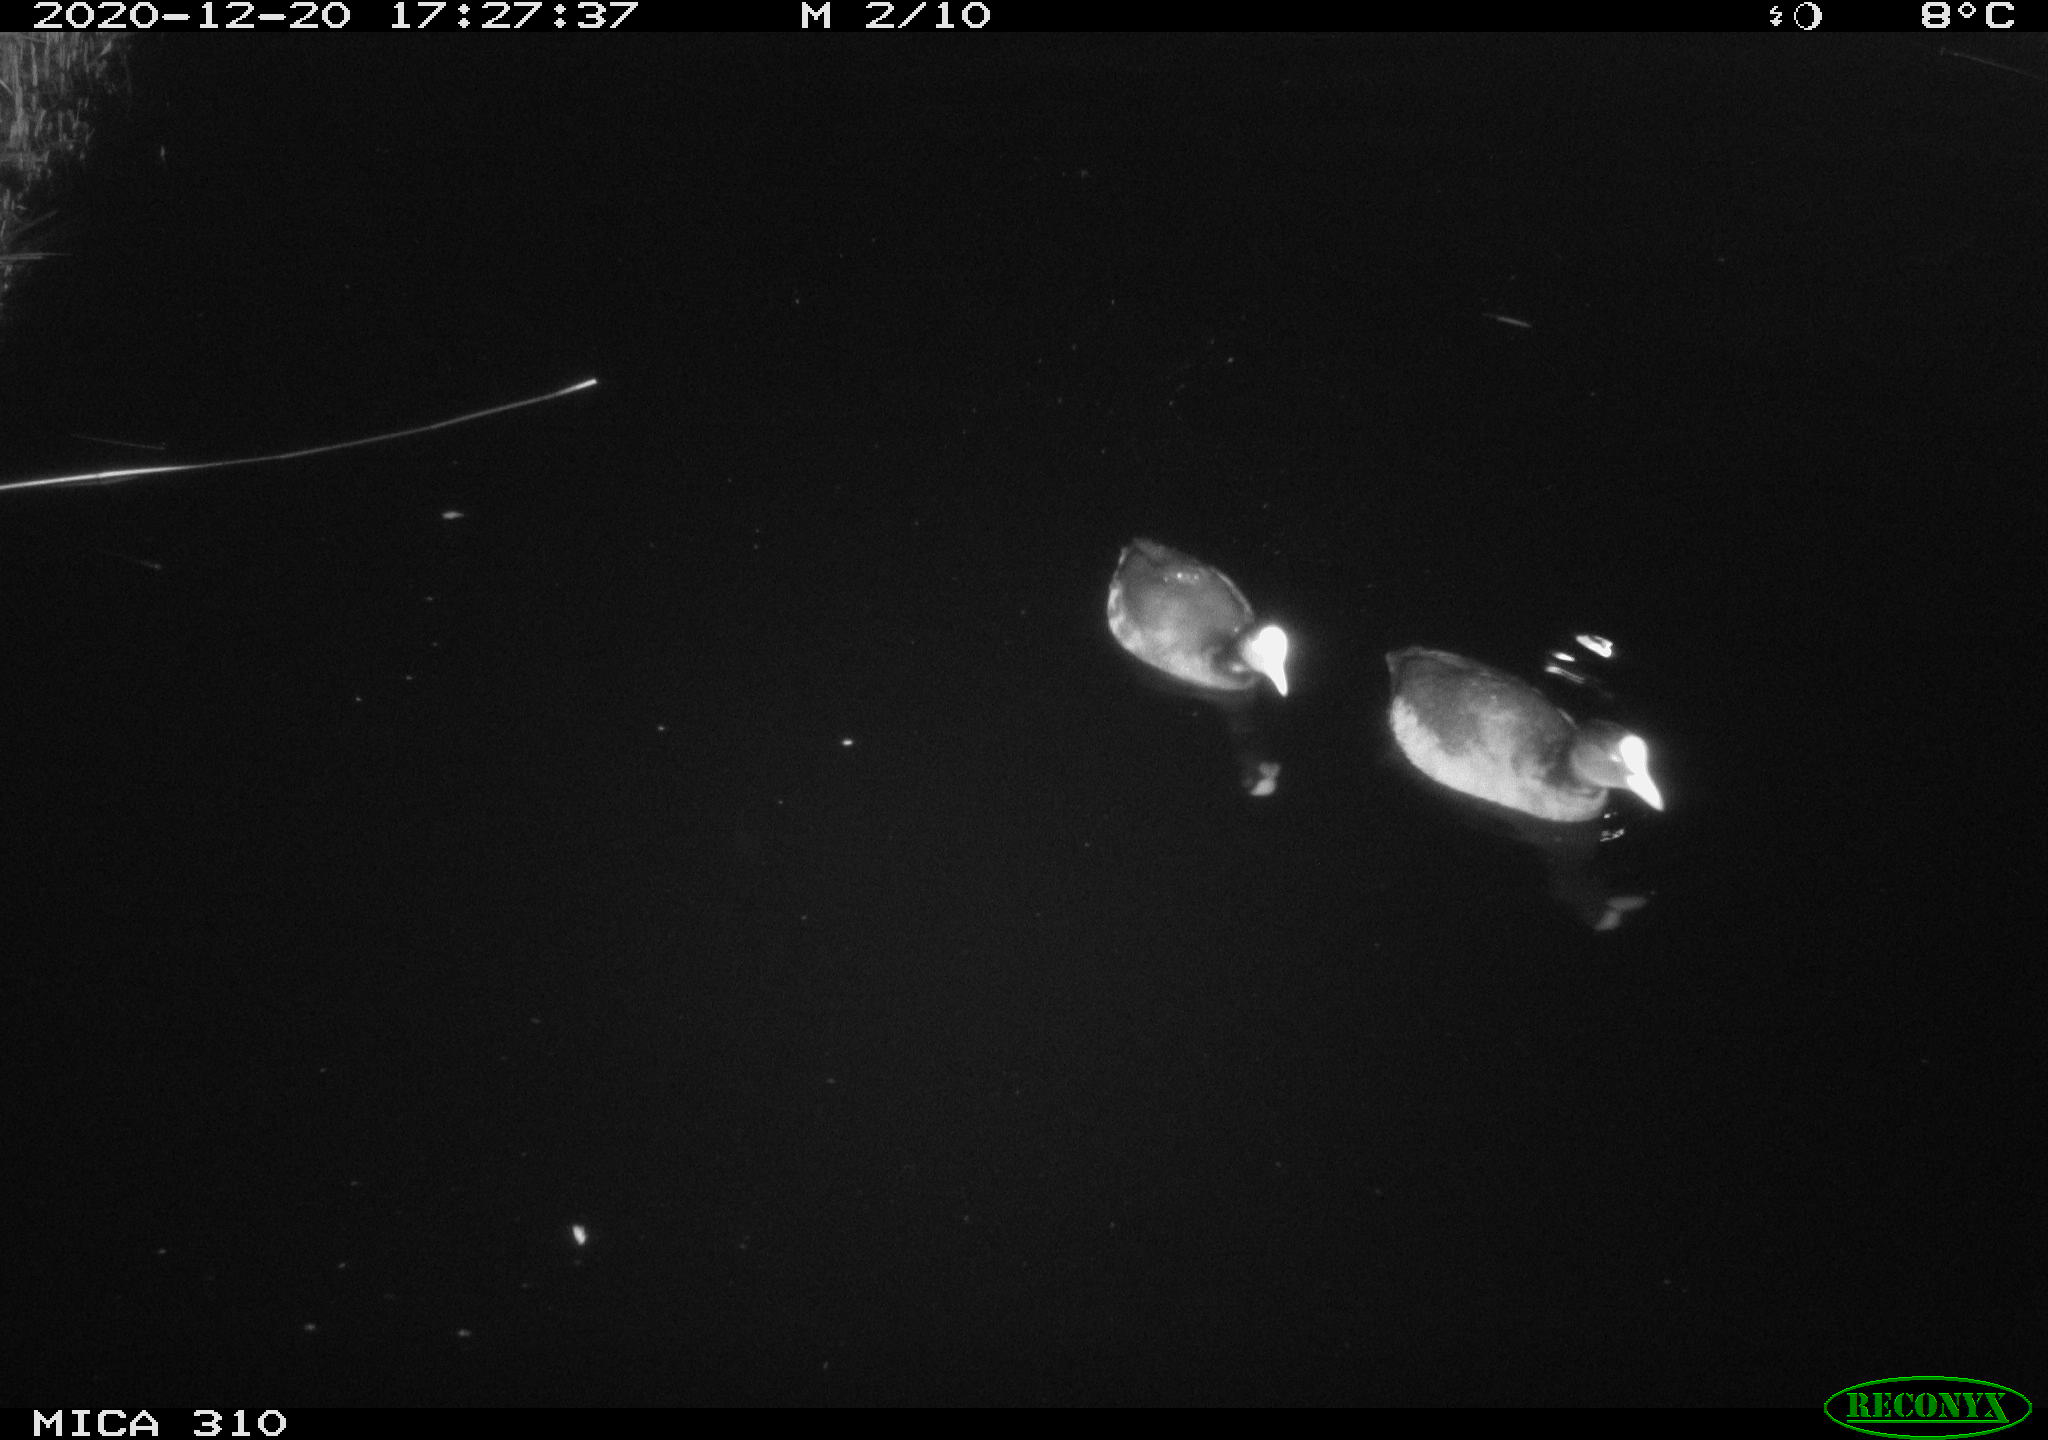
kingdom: Animalia
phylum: Chordata
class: Aves
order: Gruiformes
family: Rallidae
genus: Fulica
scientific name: Fulica atra
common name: Eurasian coot
